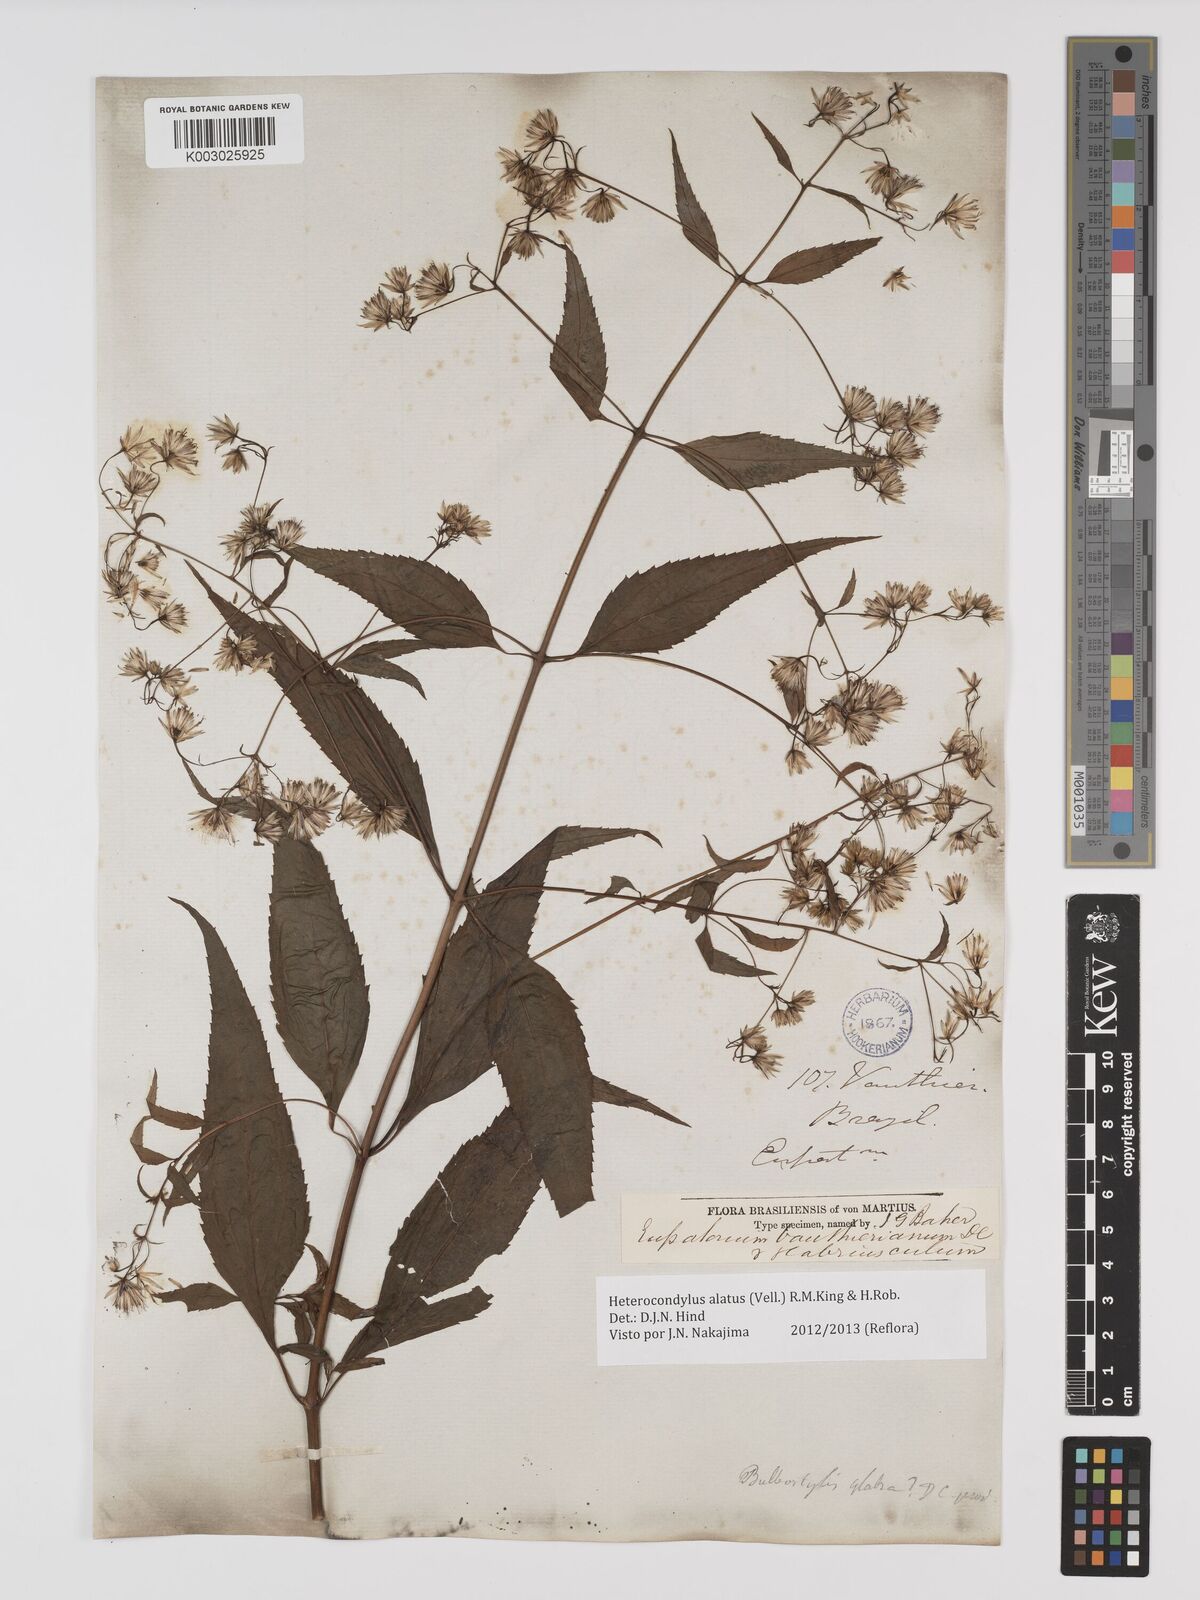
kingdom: Plantae
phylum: Tracheophyta
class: Magnoliopsida
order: Asterales
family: Asteraceae
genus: Heterocondylus
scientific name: Heterocondylus alatus
